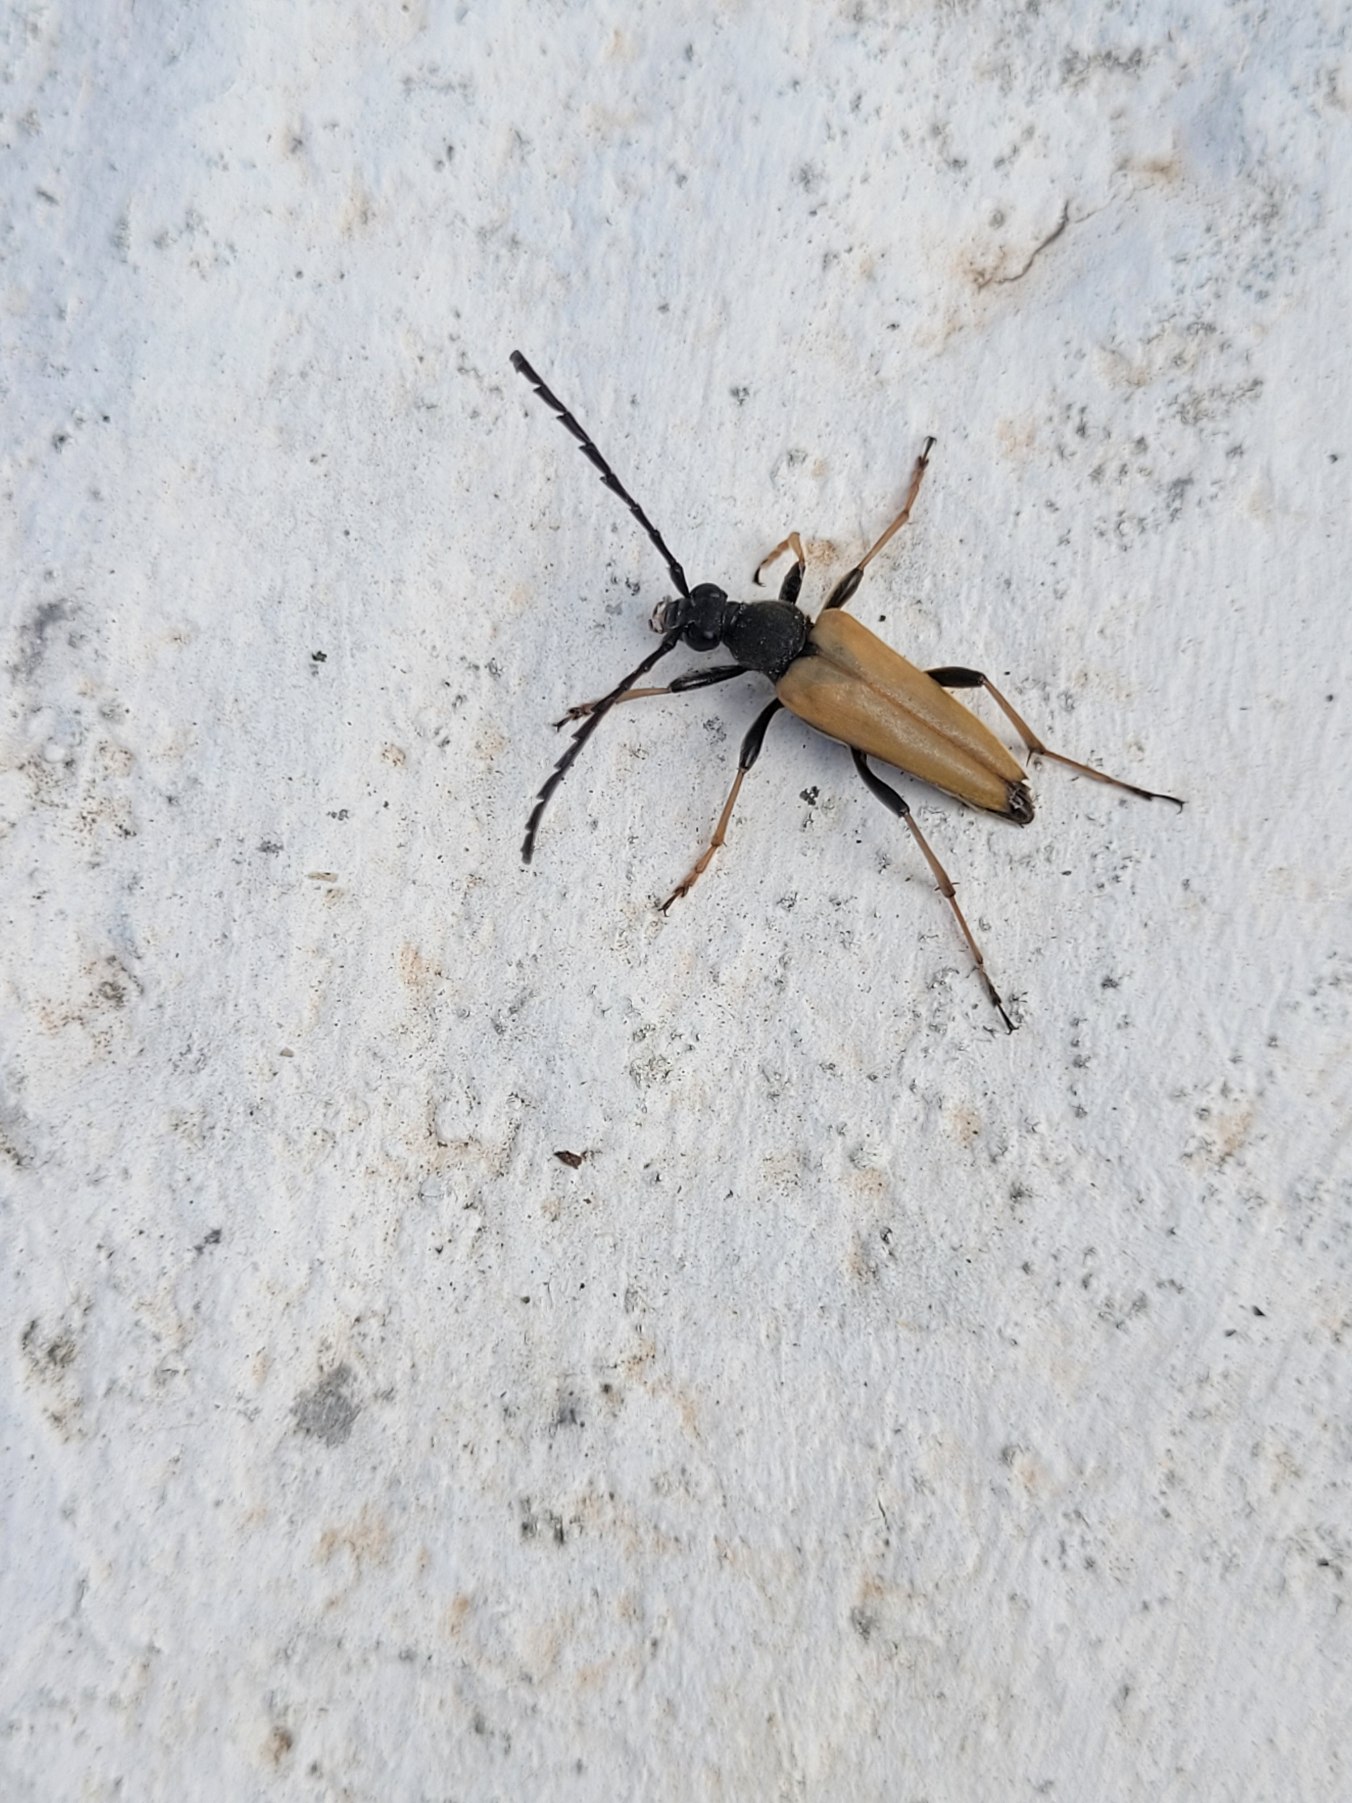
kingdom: Animalia
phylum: Arthropoda
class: Insecta
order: Coleoptera
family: Cerambycidae
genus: Stictoleptura
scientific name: Stictoleptura rubra
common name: Rød blomsterbuk
